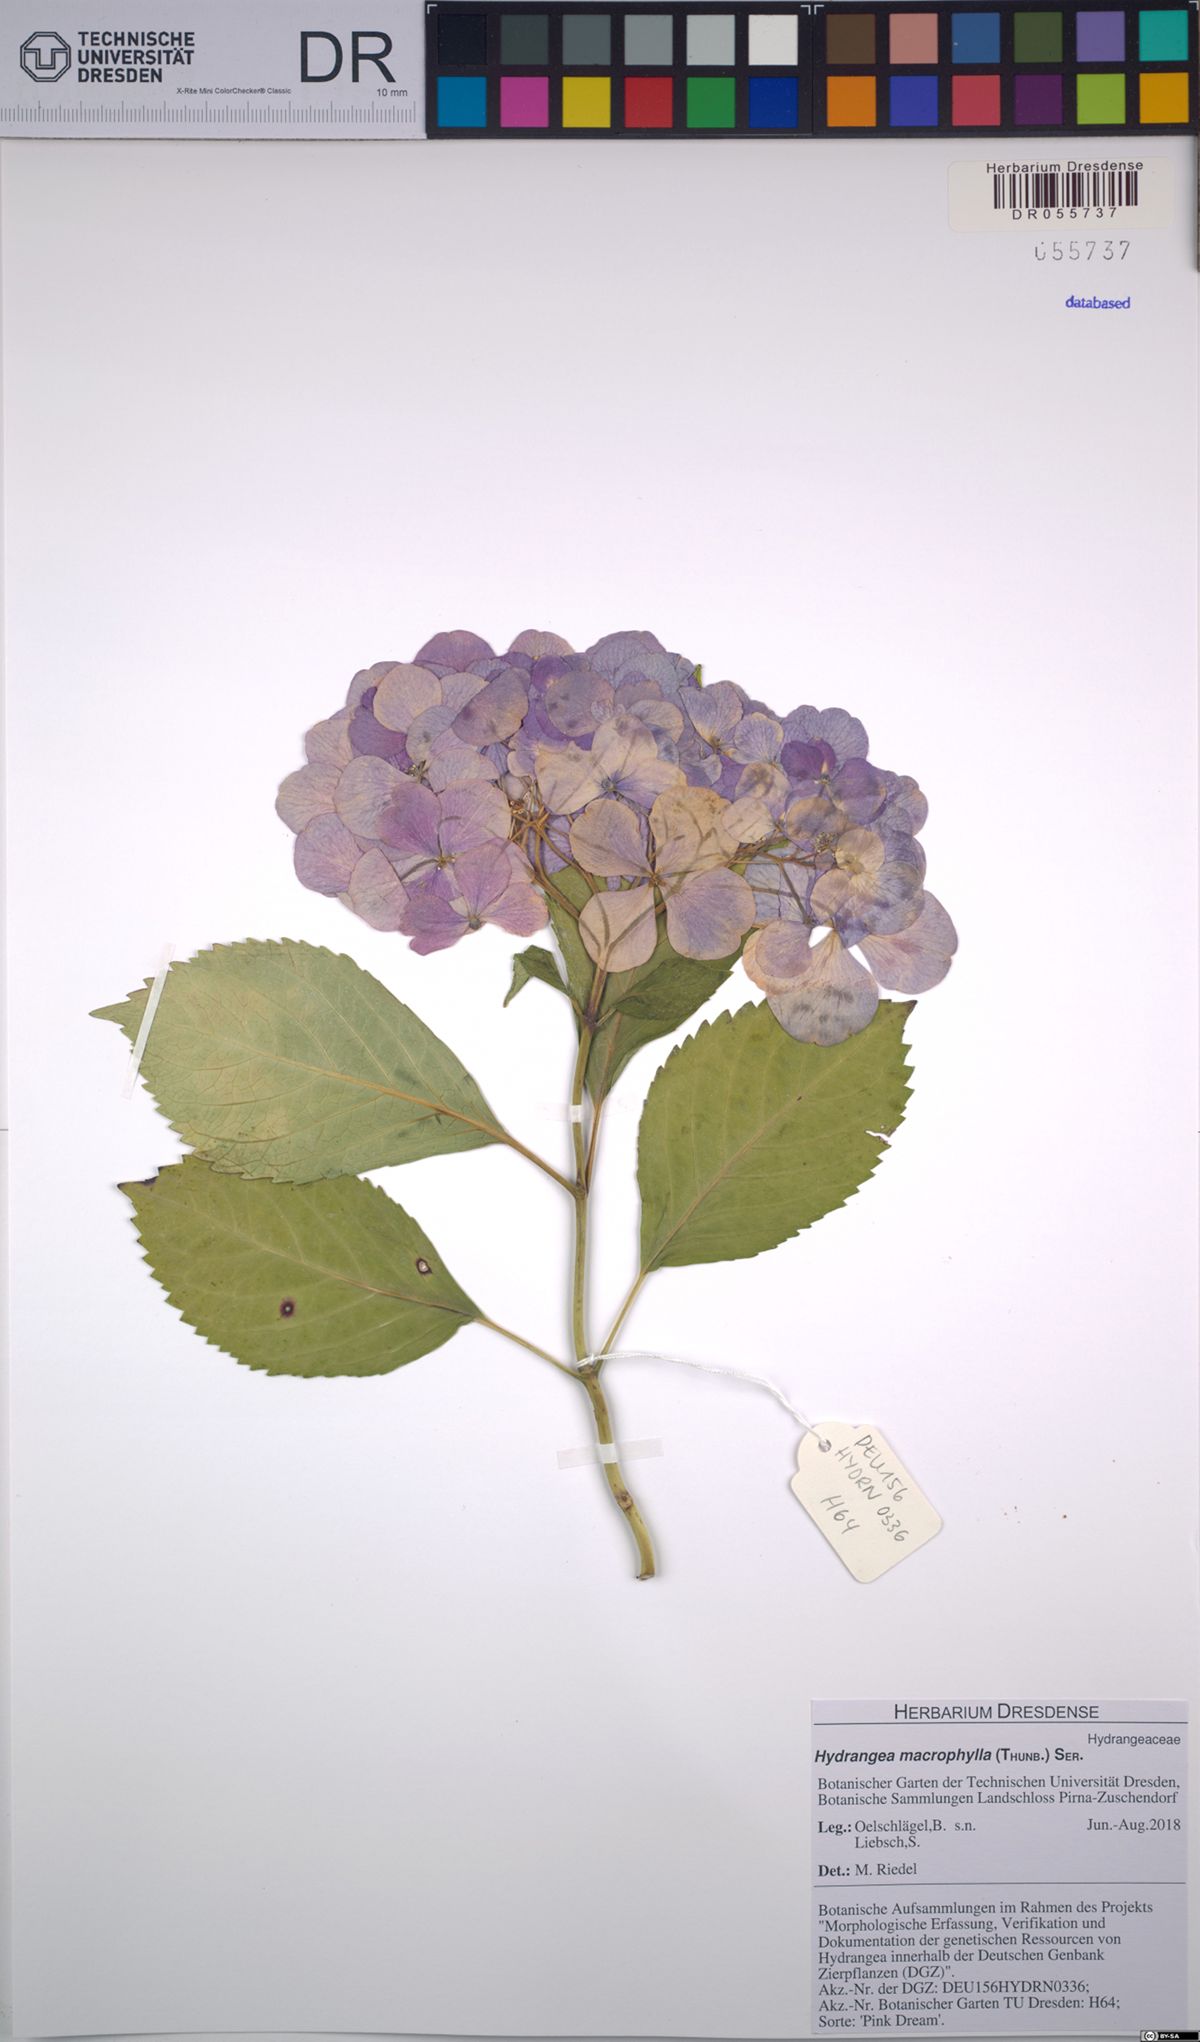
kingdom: Plantae
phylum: Tracheophyta
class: Magnoliopsida
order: Cornales
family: Hydrangeaceae
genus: Hydrangea
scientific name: Hydrangea macrophylla
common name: Hydrangea
